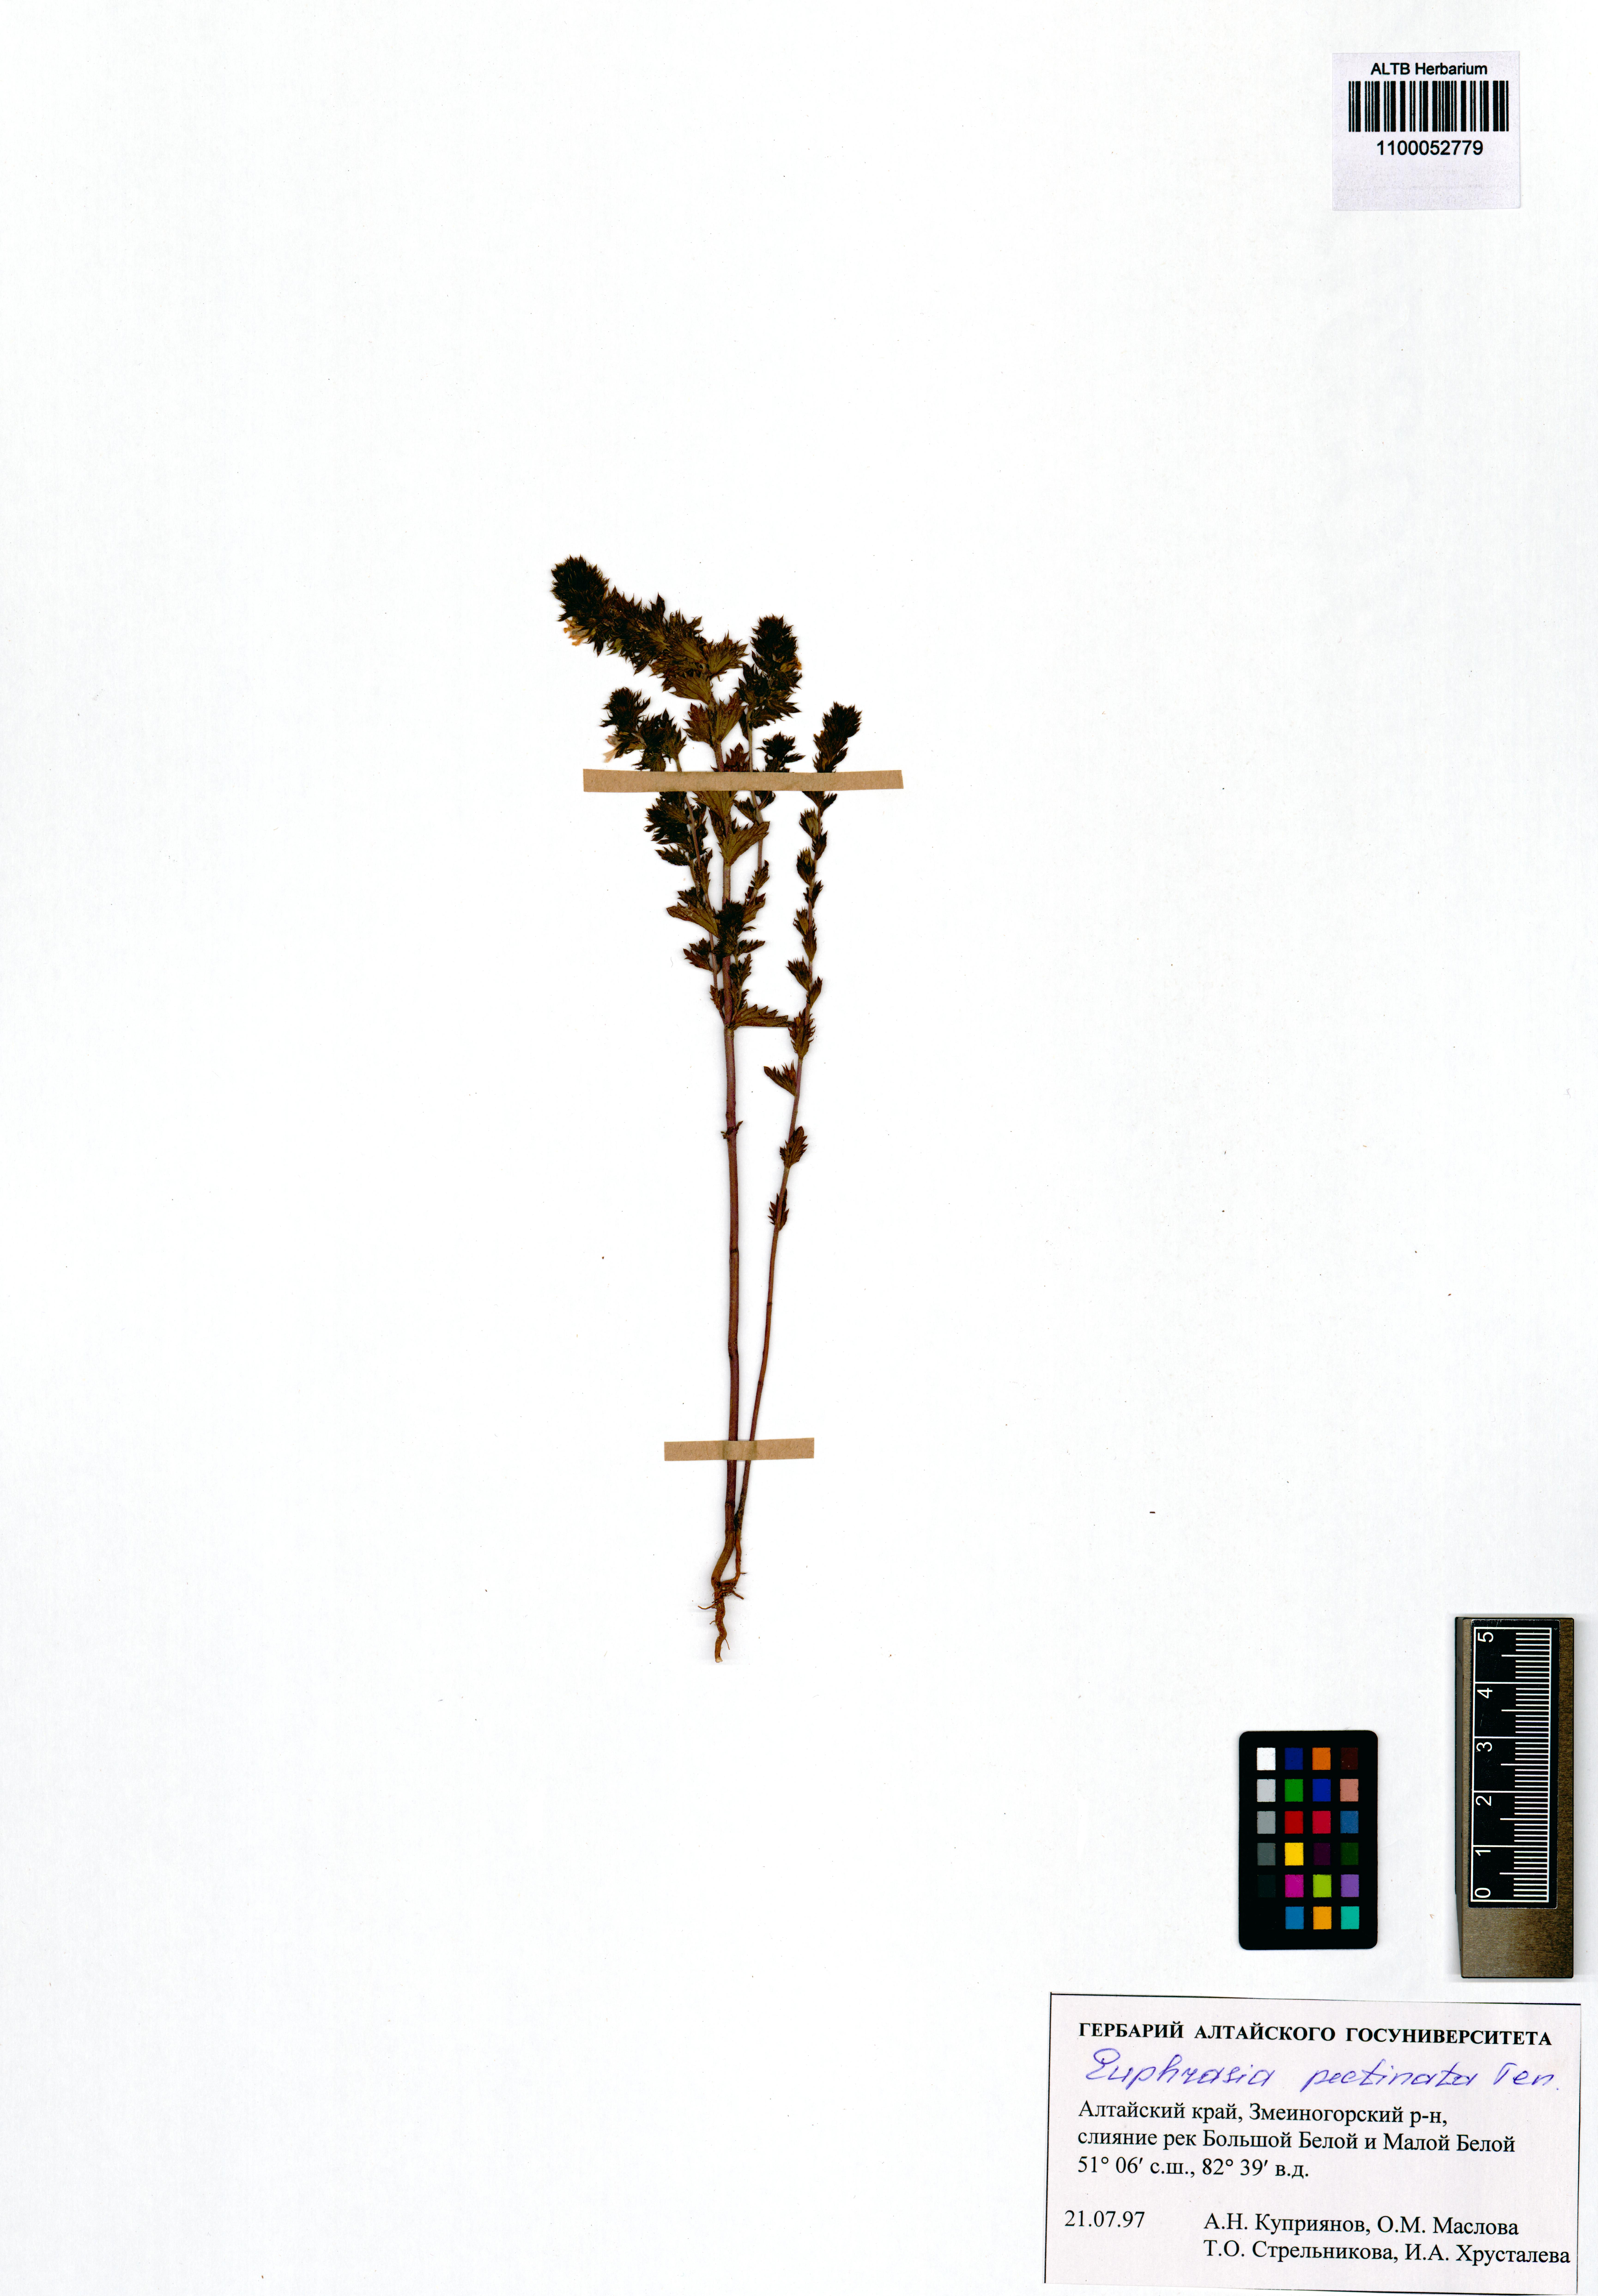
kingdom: Plantae
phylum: Tracheophyta
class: Magnoliopsida
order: Lamiales
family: Orobanchaceae
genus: Euphrasia
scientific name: Euphrasia pectinata
